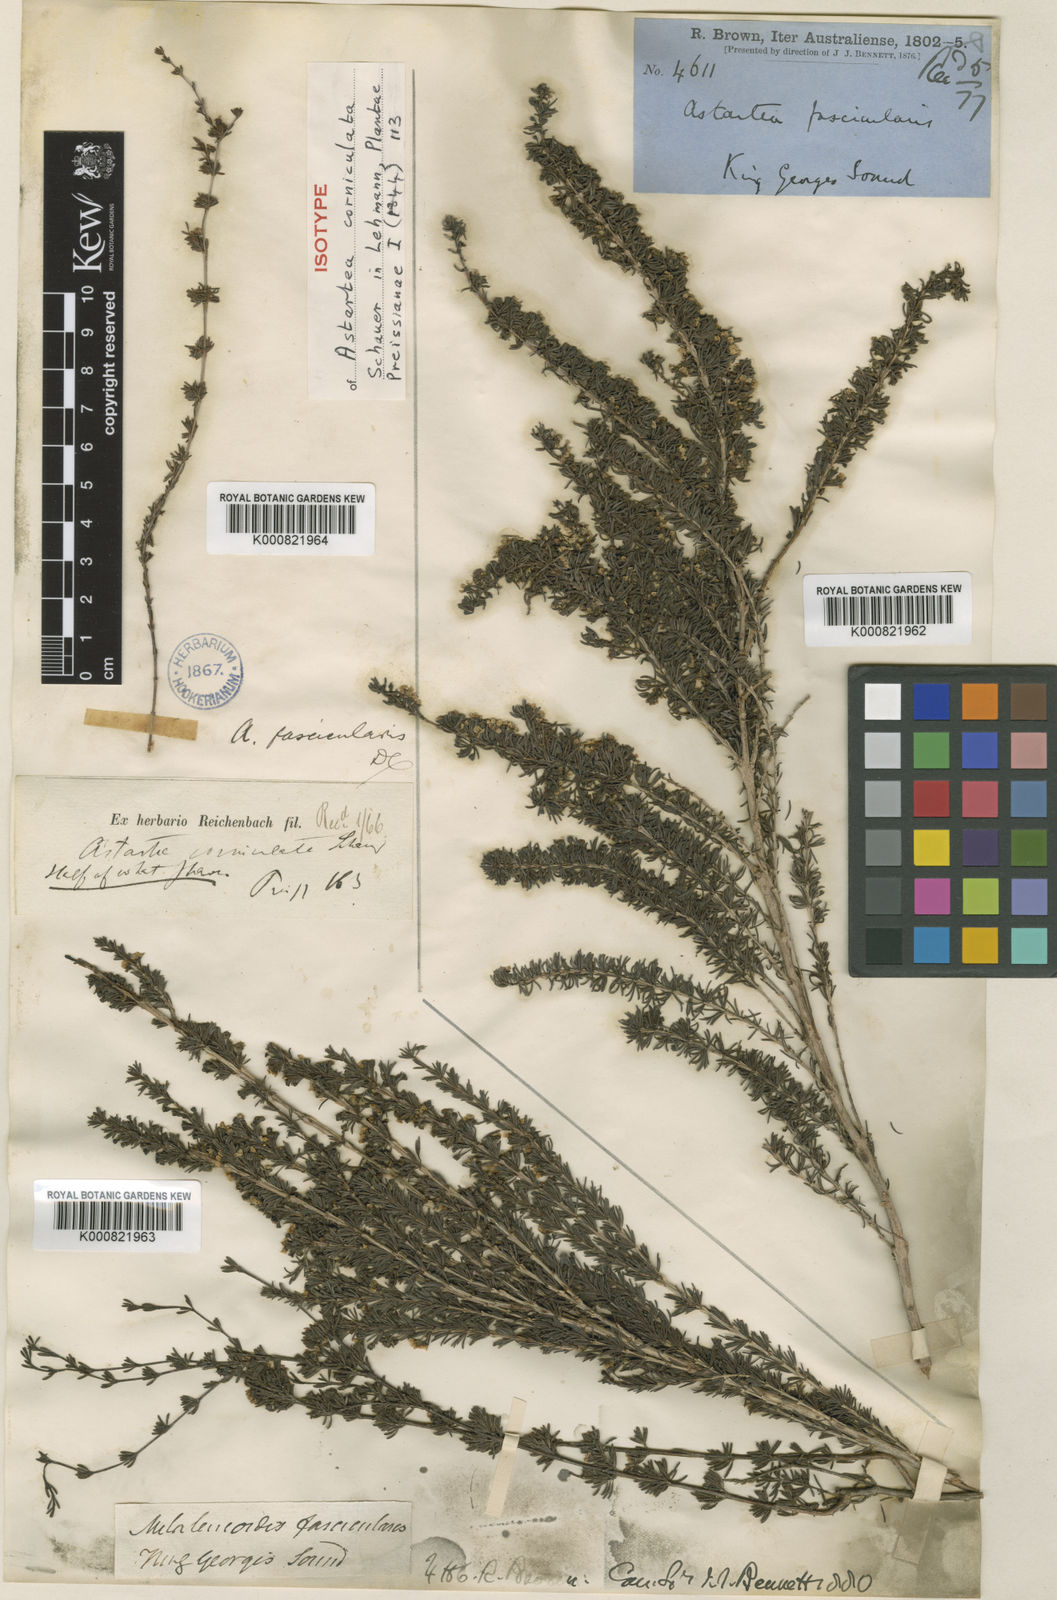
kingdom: Plantae
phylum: Tracheophyta
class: Magnoliopsida
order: Myrtales
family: Myrtaceae
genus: Astartea
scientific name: Astartea fascicularis
